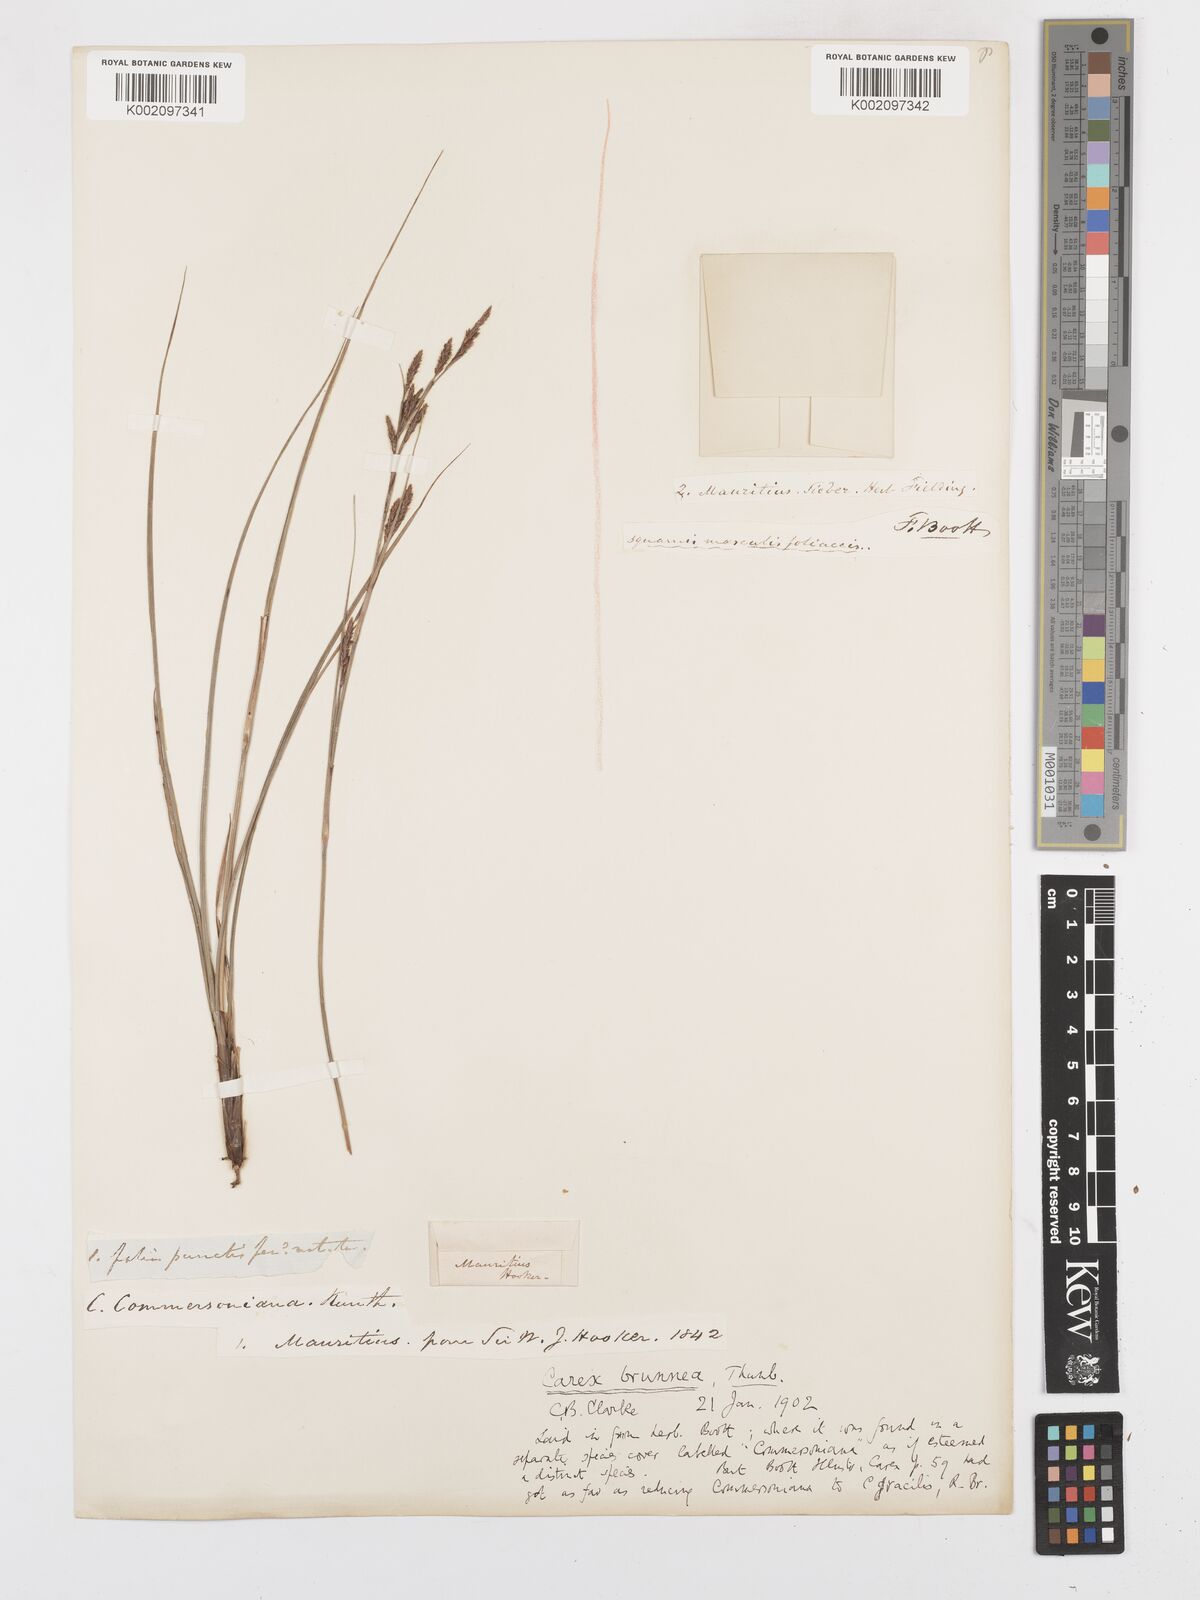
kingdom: Plantae
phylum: Tracheophyta
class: Liliopsida
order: Poales
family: Cyperaceae
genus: Carex
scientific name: Carex brunnea
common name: Greater brown sedge
